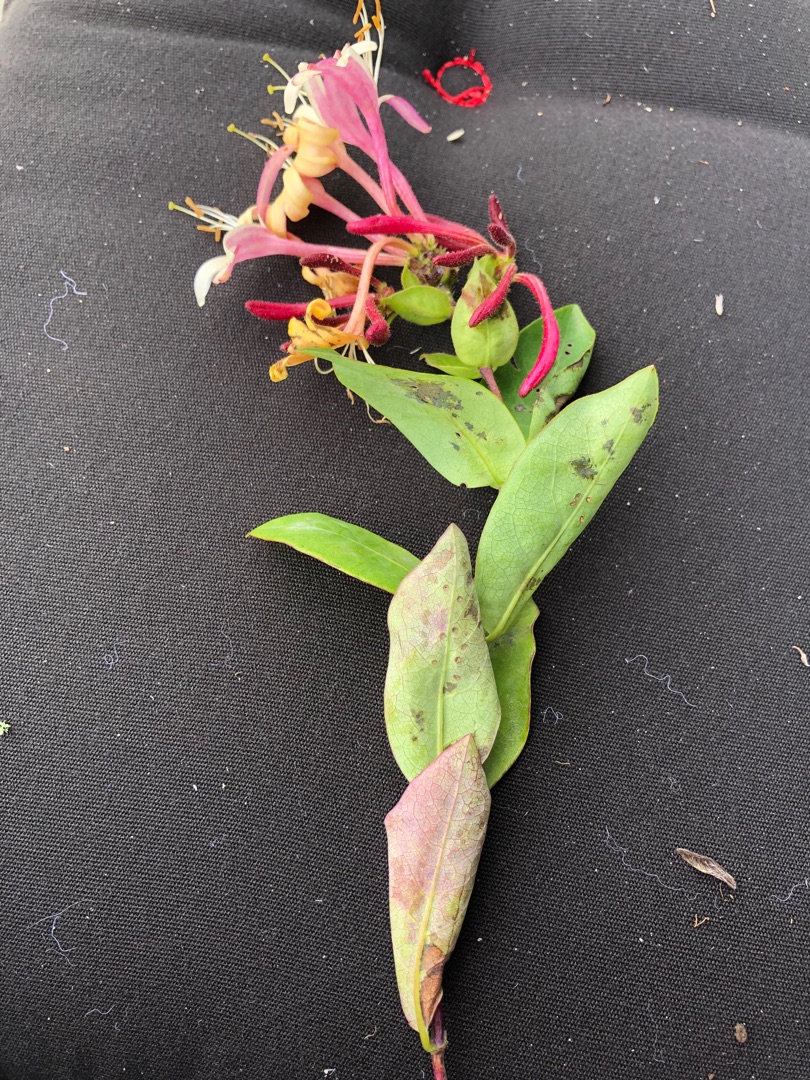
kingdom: Plantae
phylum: Tracheophyta
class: Magnoliopsida
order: Dipsacales
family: Caprifoliaceae
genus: Lonicera
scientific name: Lonicera periclymenum
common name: Almindelig gedeblad
